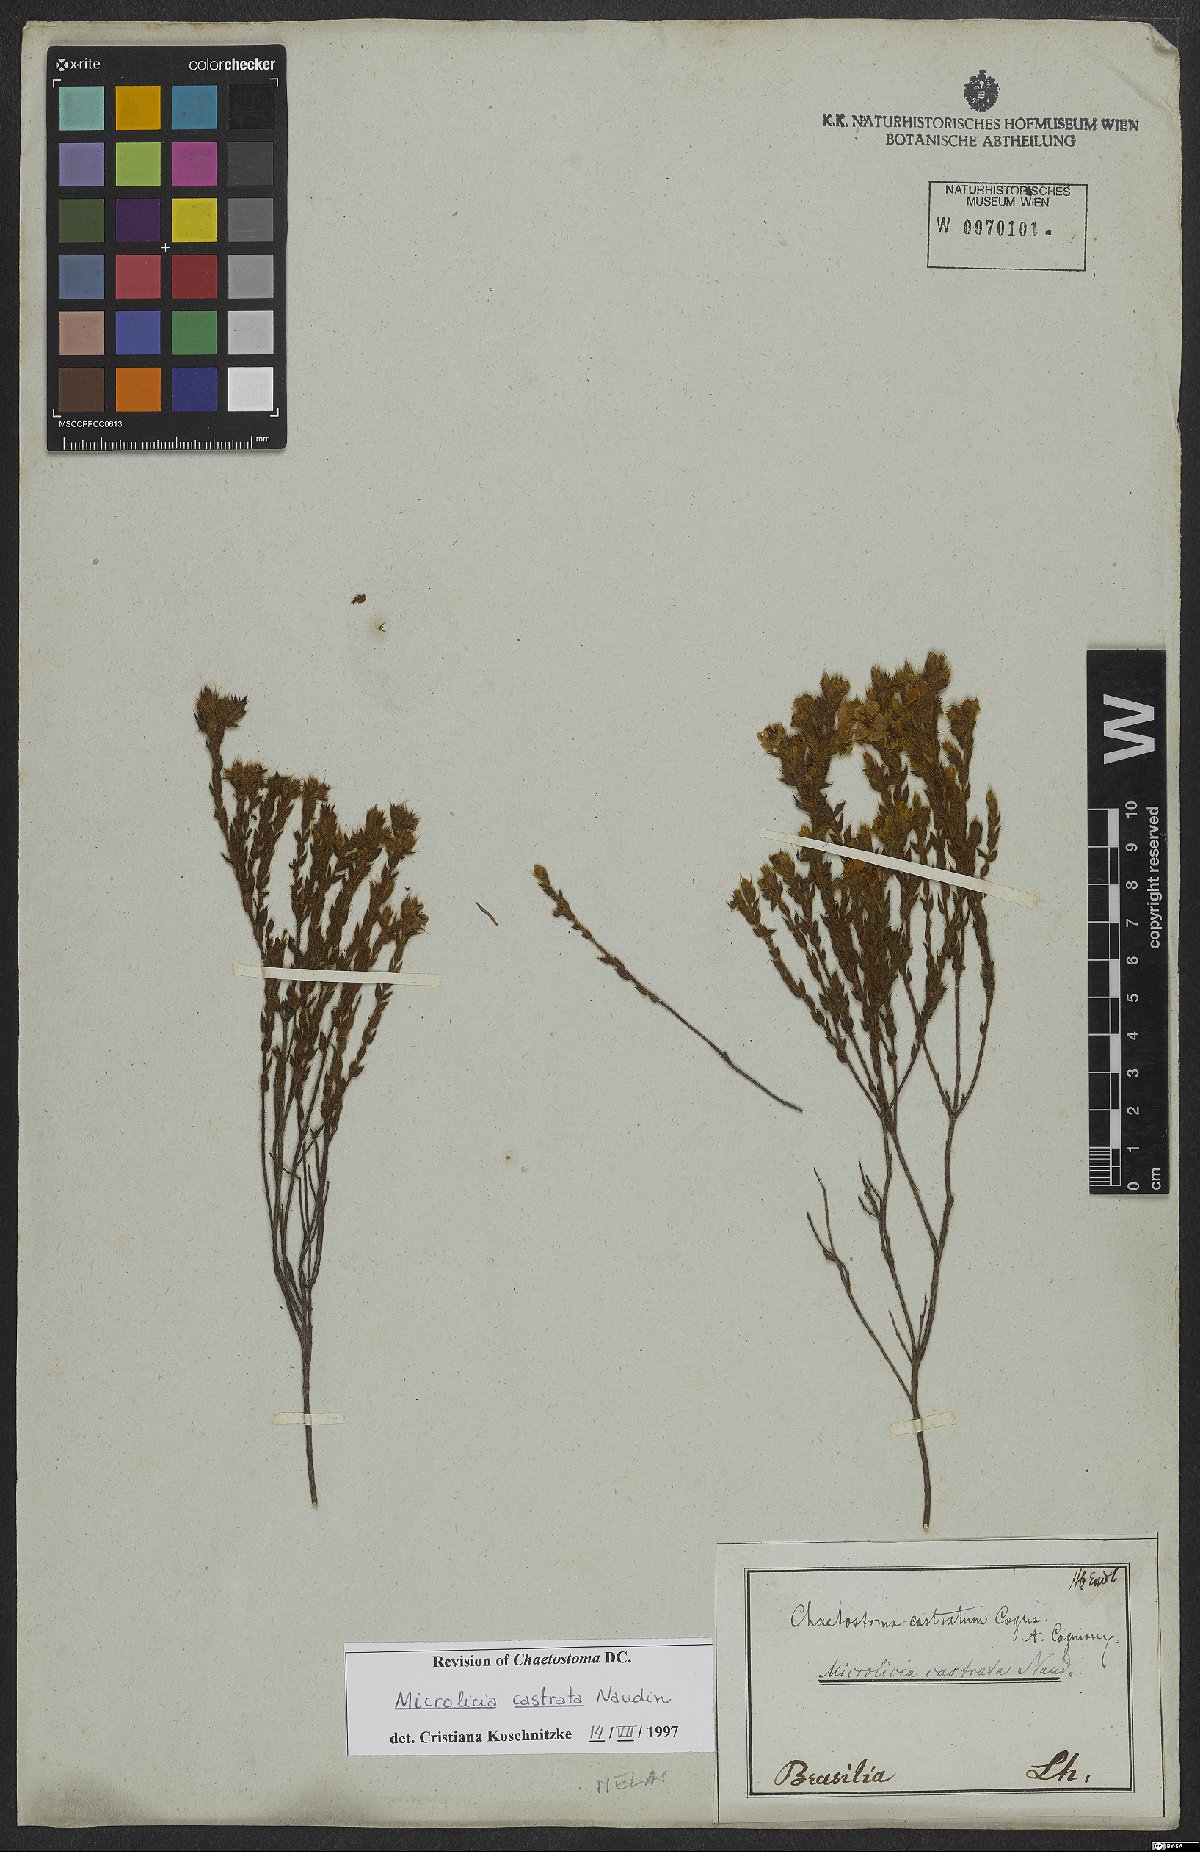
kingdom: Plantae
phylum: Tracheophyta
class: Magnoliopsida
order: Myrtales
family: Melastomataceae
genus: Microlicia
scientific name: Microlicia castrata
